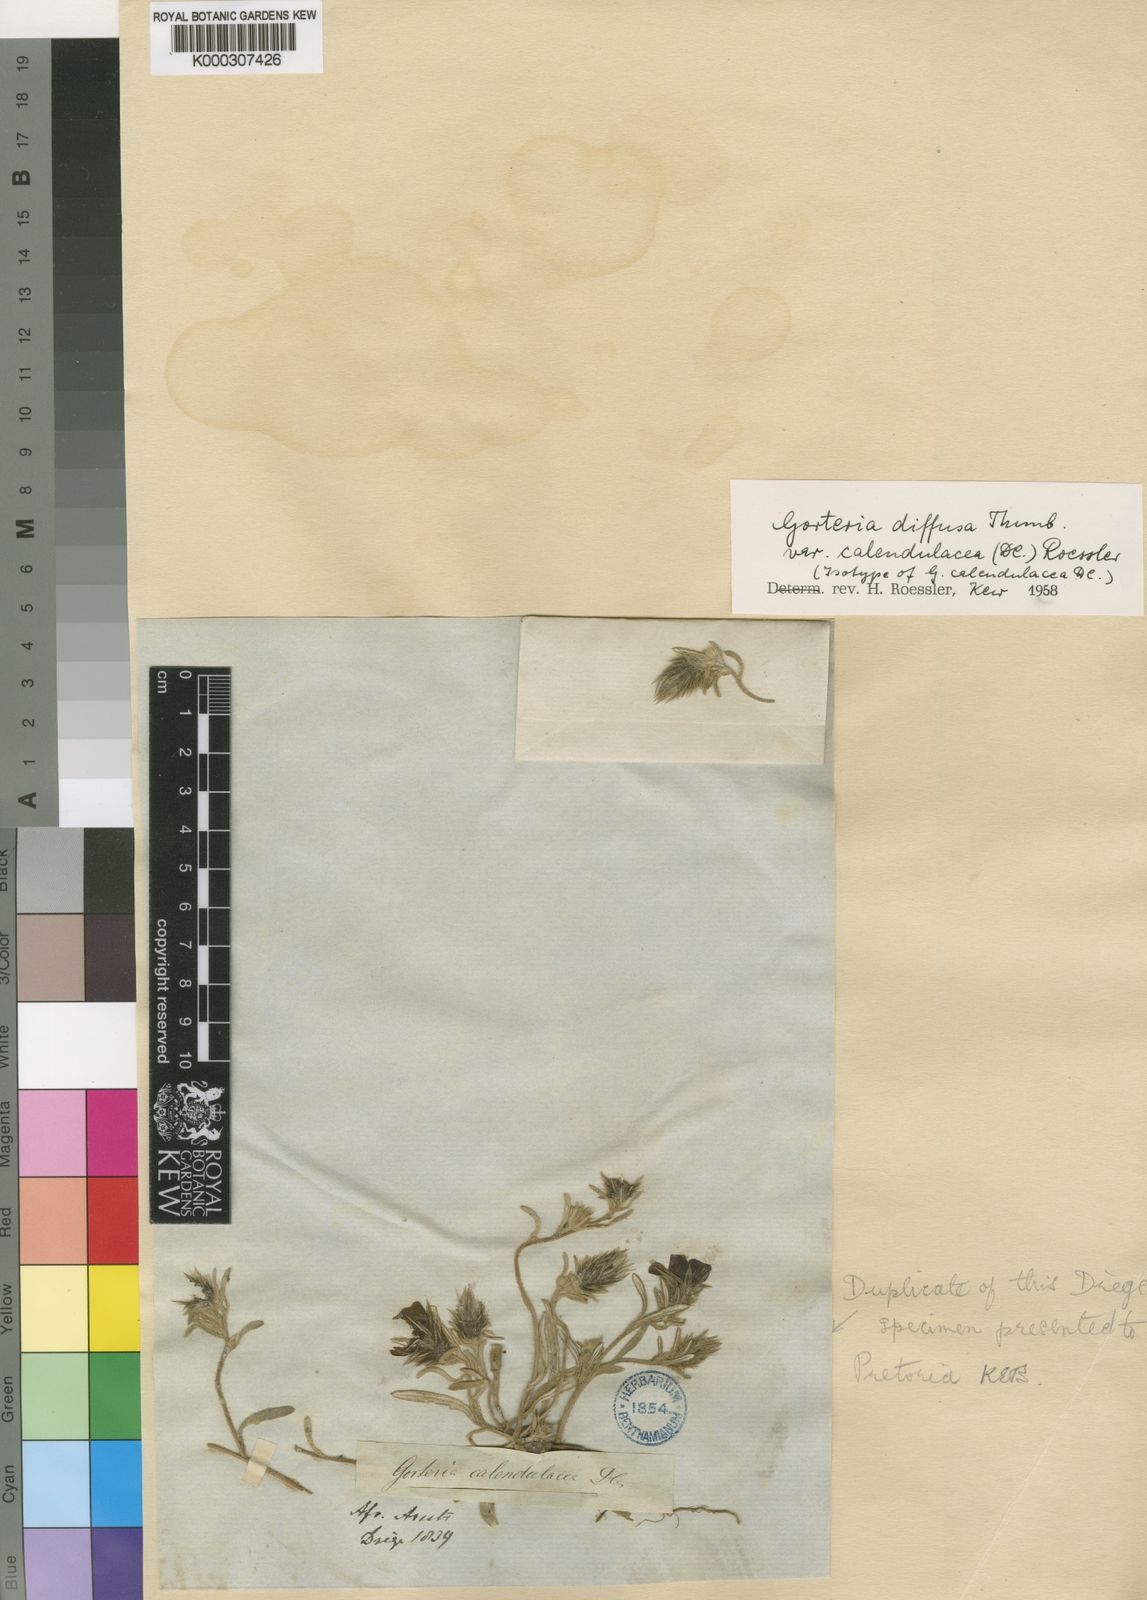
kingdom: Plantae
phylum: Tracheophyta
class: Magnoliopsida
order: Asterales
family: Asteraceae
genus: Gorteria
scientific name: Gorteria diffusa
